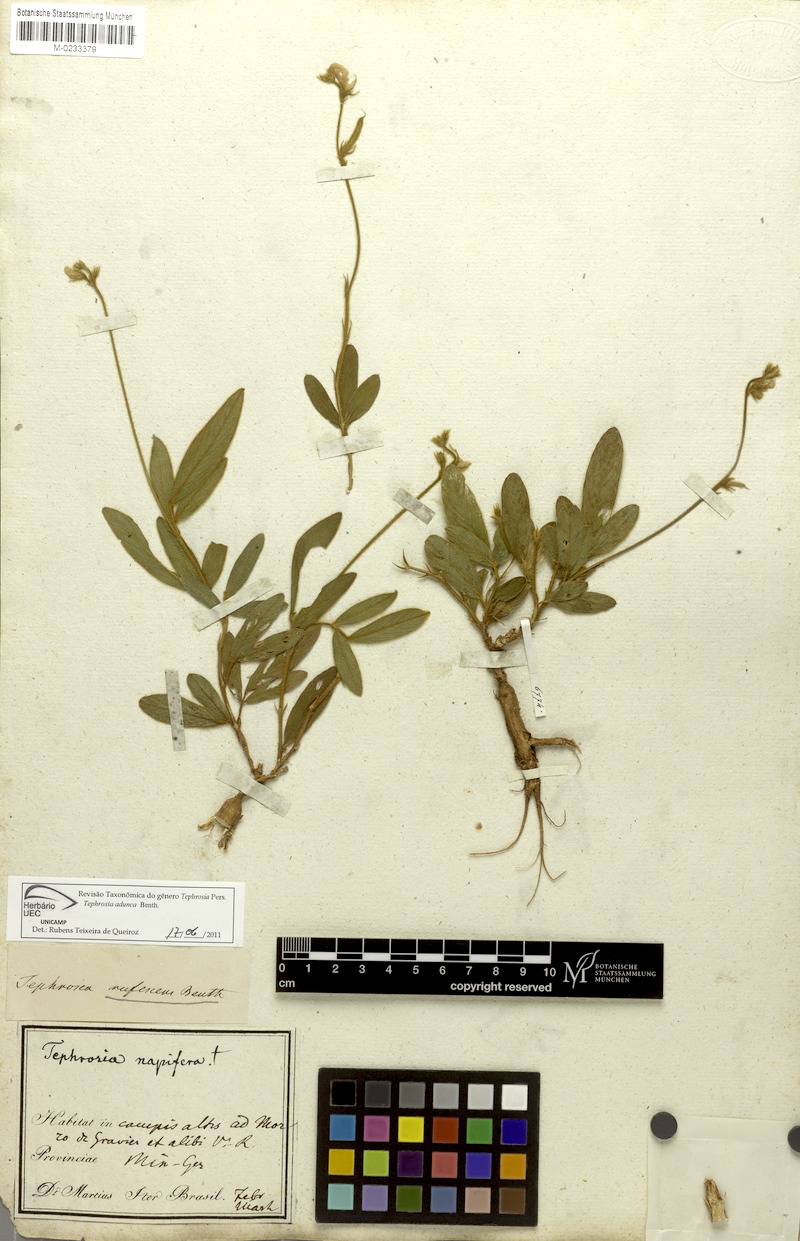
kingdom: Plantae
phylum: Tracheophyta
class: Magnoliopsida
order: Fabales
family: Fabaceae
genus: Tephrosia
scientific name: Tephrosia adunca
